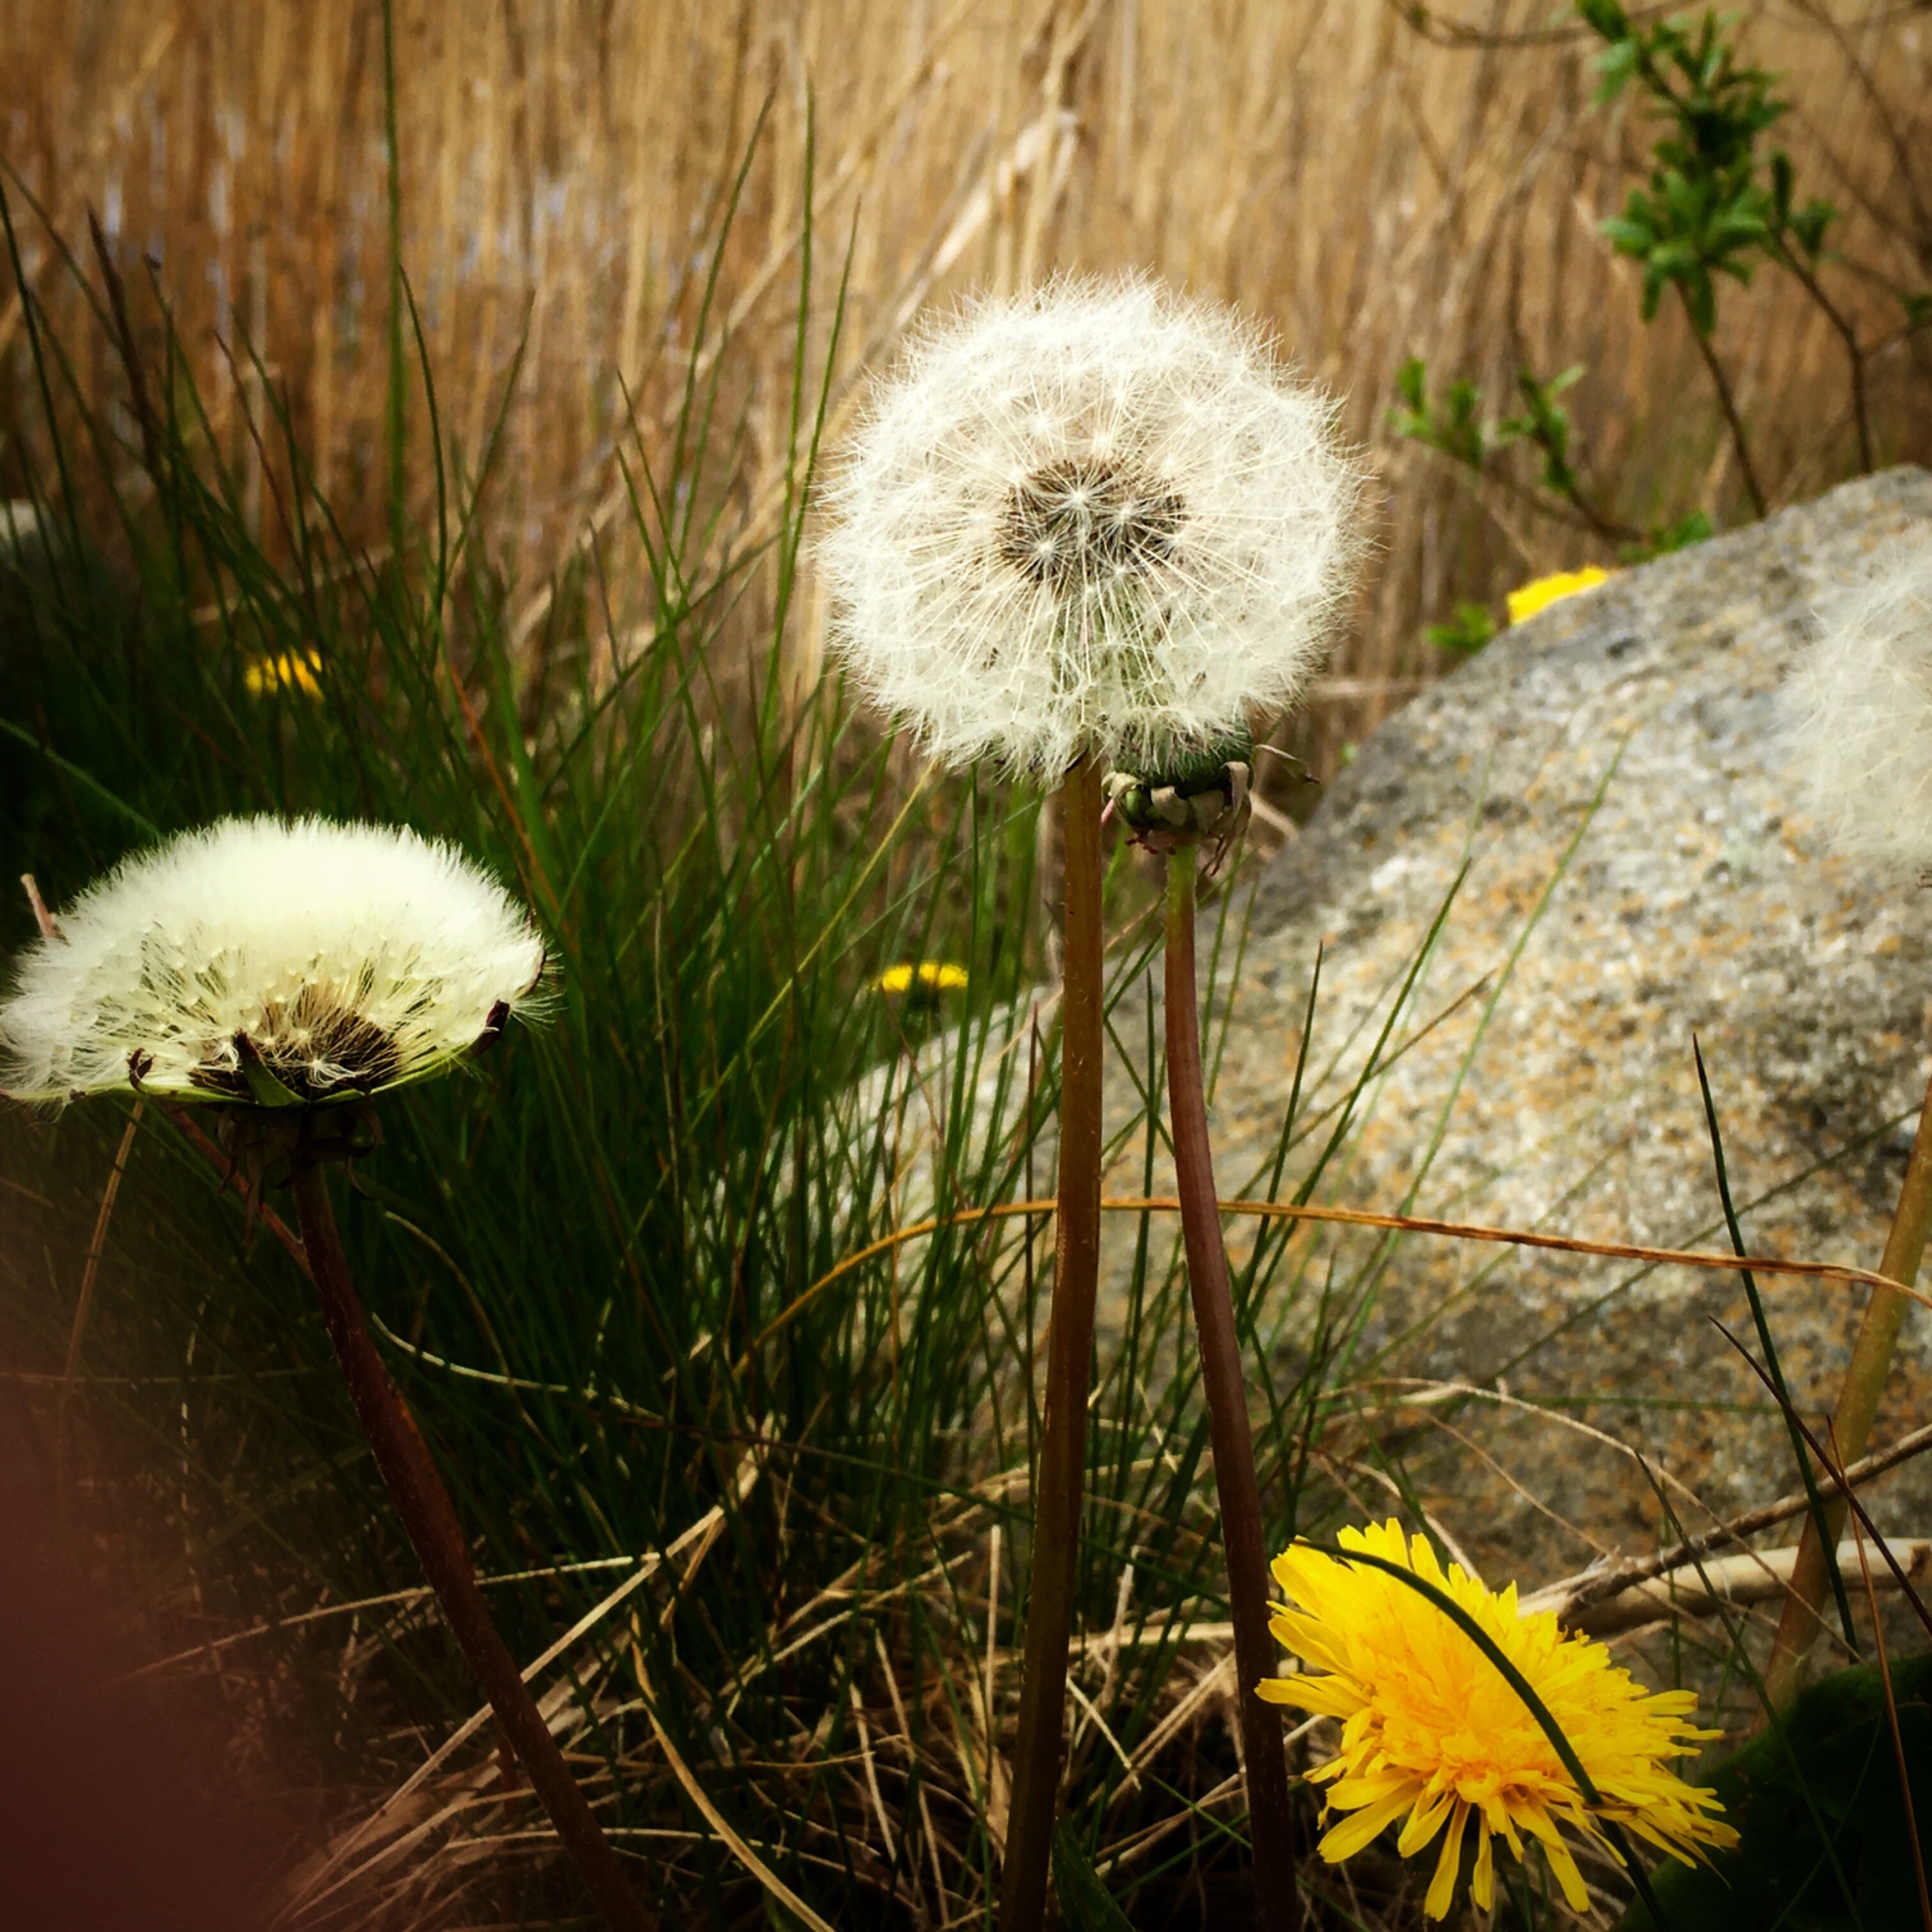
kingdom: Plantae
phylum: Tracheophyta
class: Magnoliopsida
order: Asterales
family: Asteraceae
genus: Taraxacum
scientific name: Taraxacum
